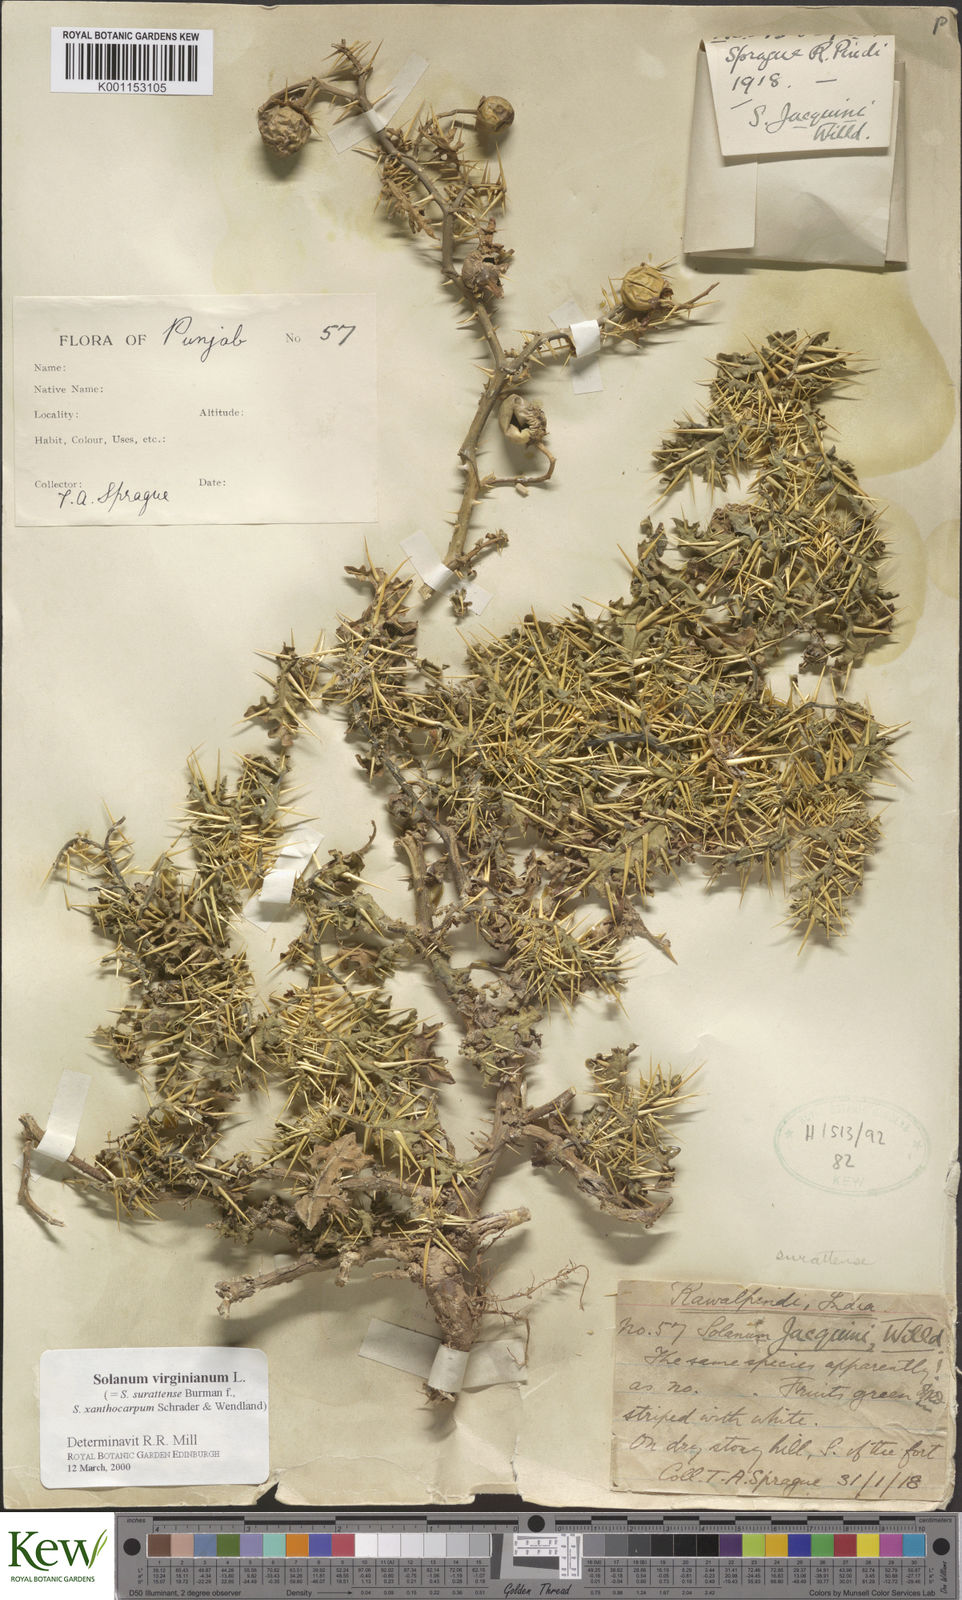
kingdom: Plantae
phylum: Tracheophyta
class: Magnoliopsida
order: Solanales
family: Solanaceae
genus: Solanum
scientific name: Solanum virginianum
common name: Surattense nightshade
